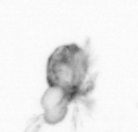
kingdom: Animalia
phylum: Arthropoda
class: Copepoda
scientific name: Copepoda
